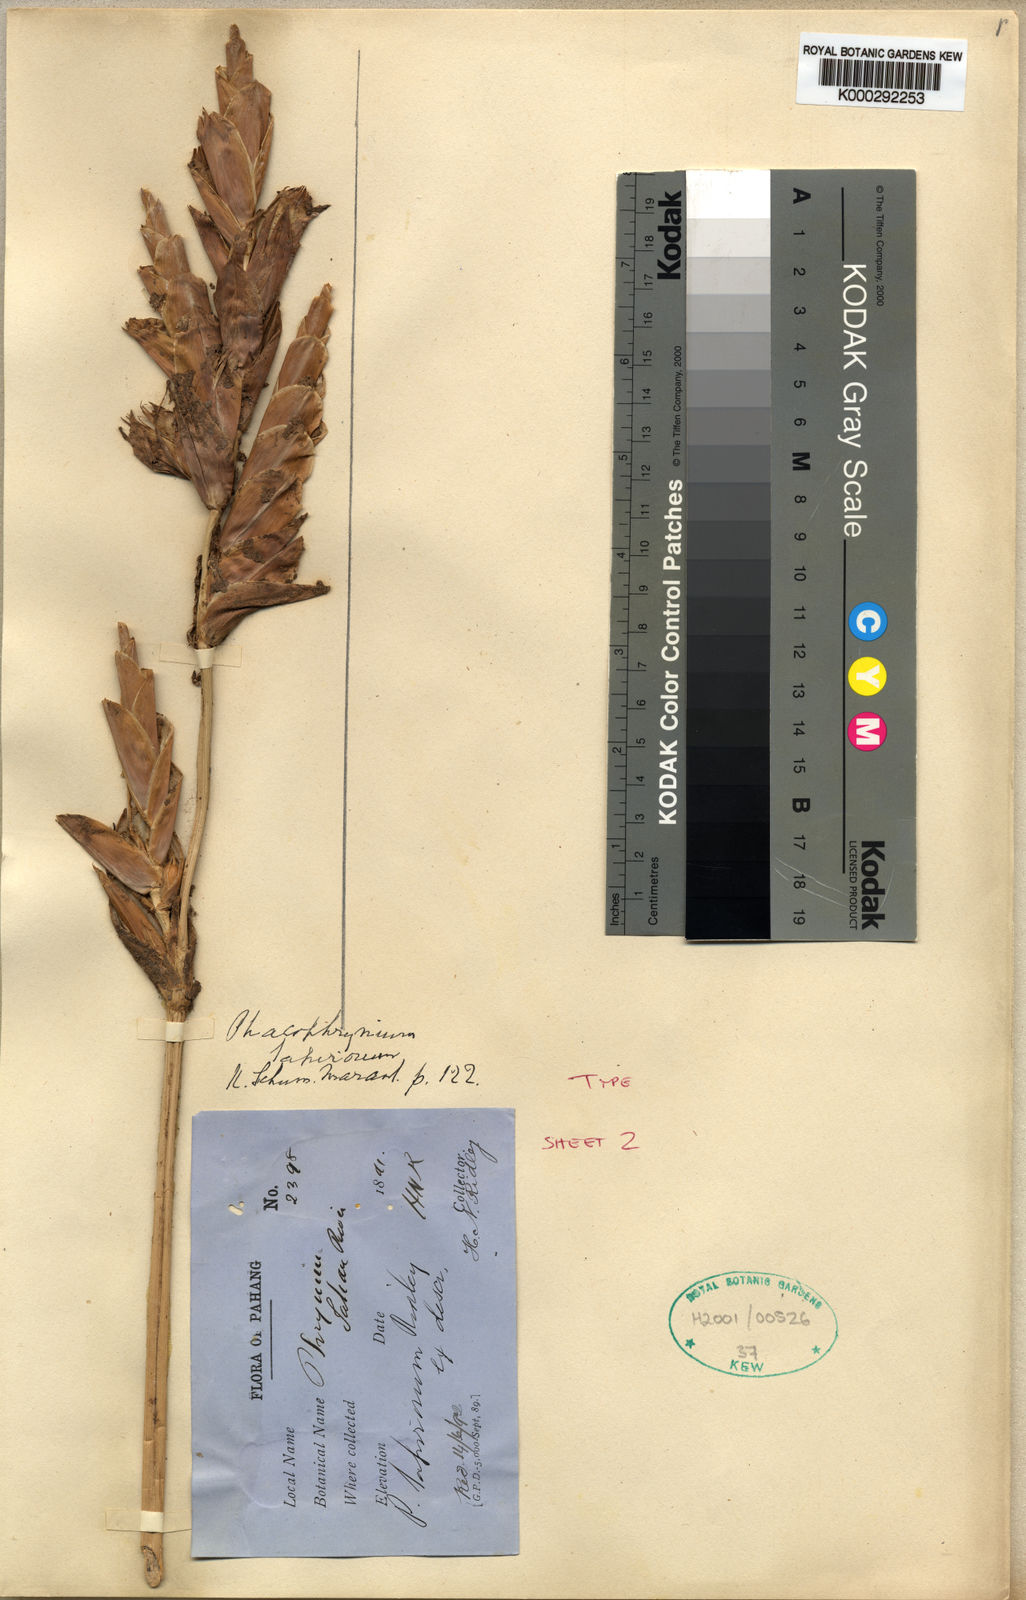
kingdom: Plantae
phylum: Tracheophyta
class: Liliopsida
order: Zingiberales
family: Marantaceae
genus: Phrynium
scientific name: Phrynium maximum
